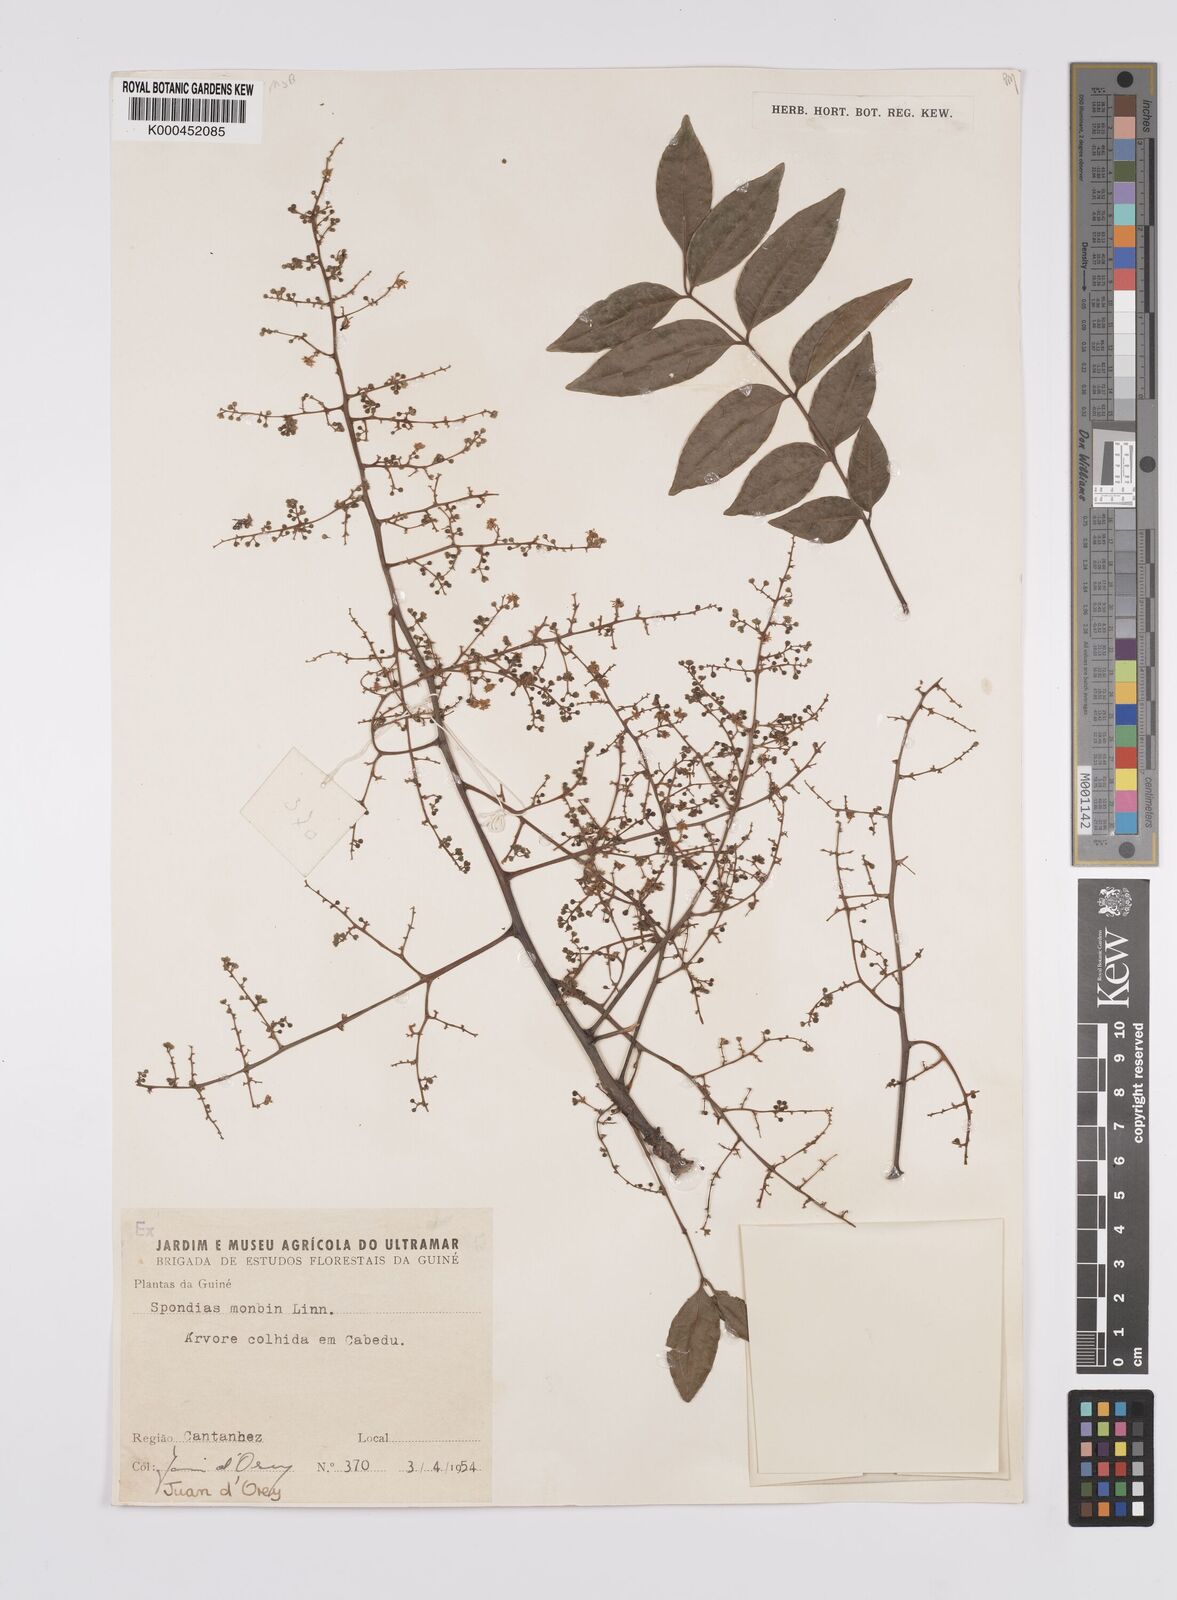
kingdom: Plantae
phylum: Tracheophyta
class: Magnoliopsida
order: Sapindales
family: Anacardiaceae
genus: Spondias
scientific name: Spondias mombin
